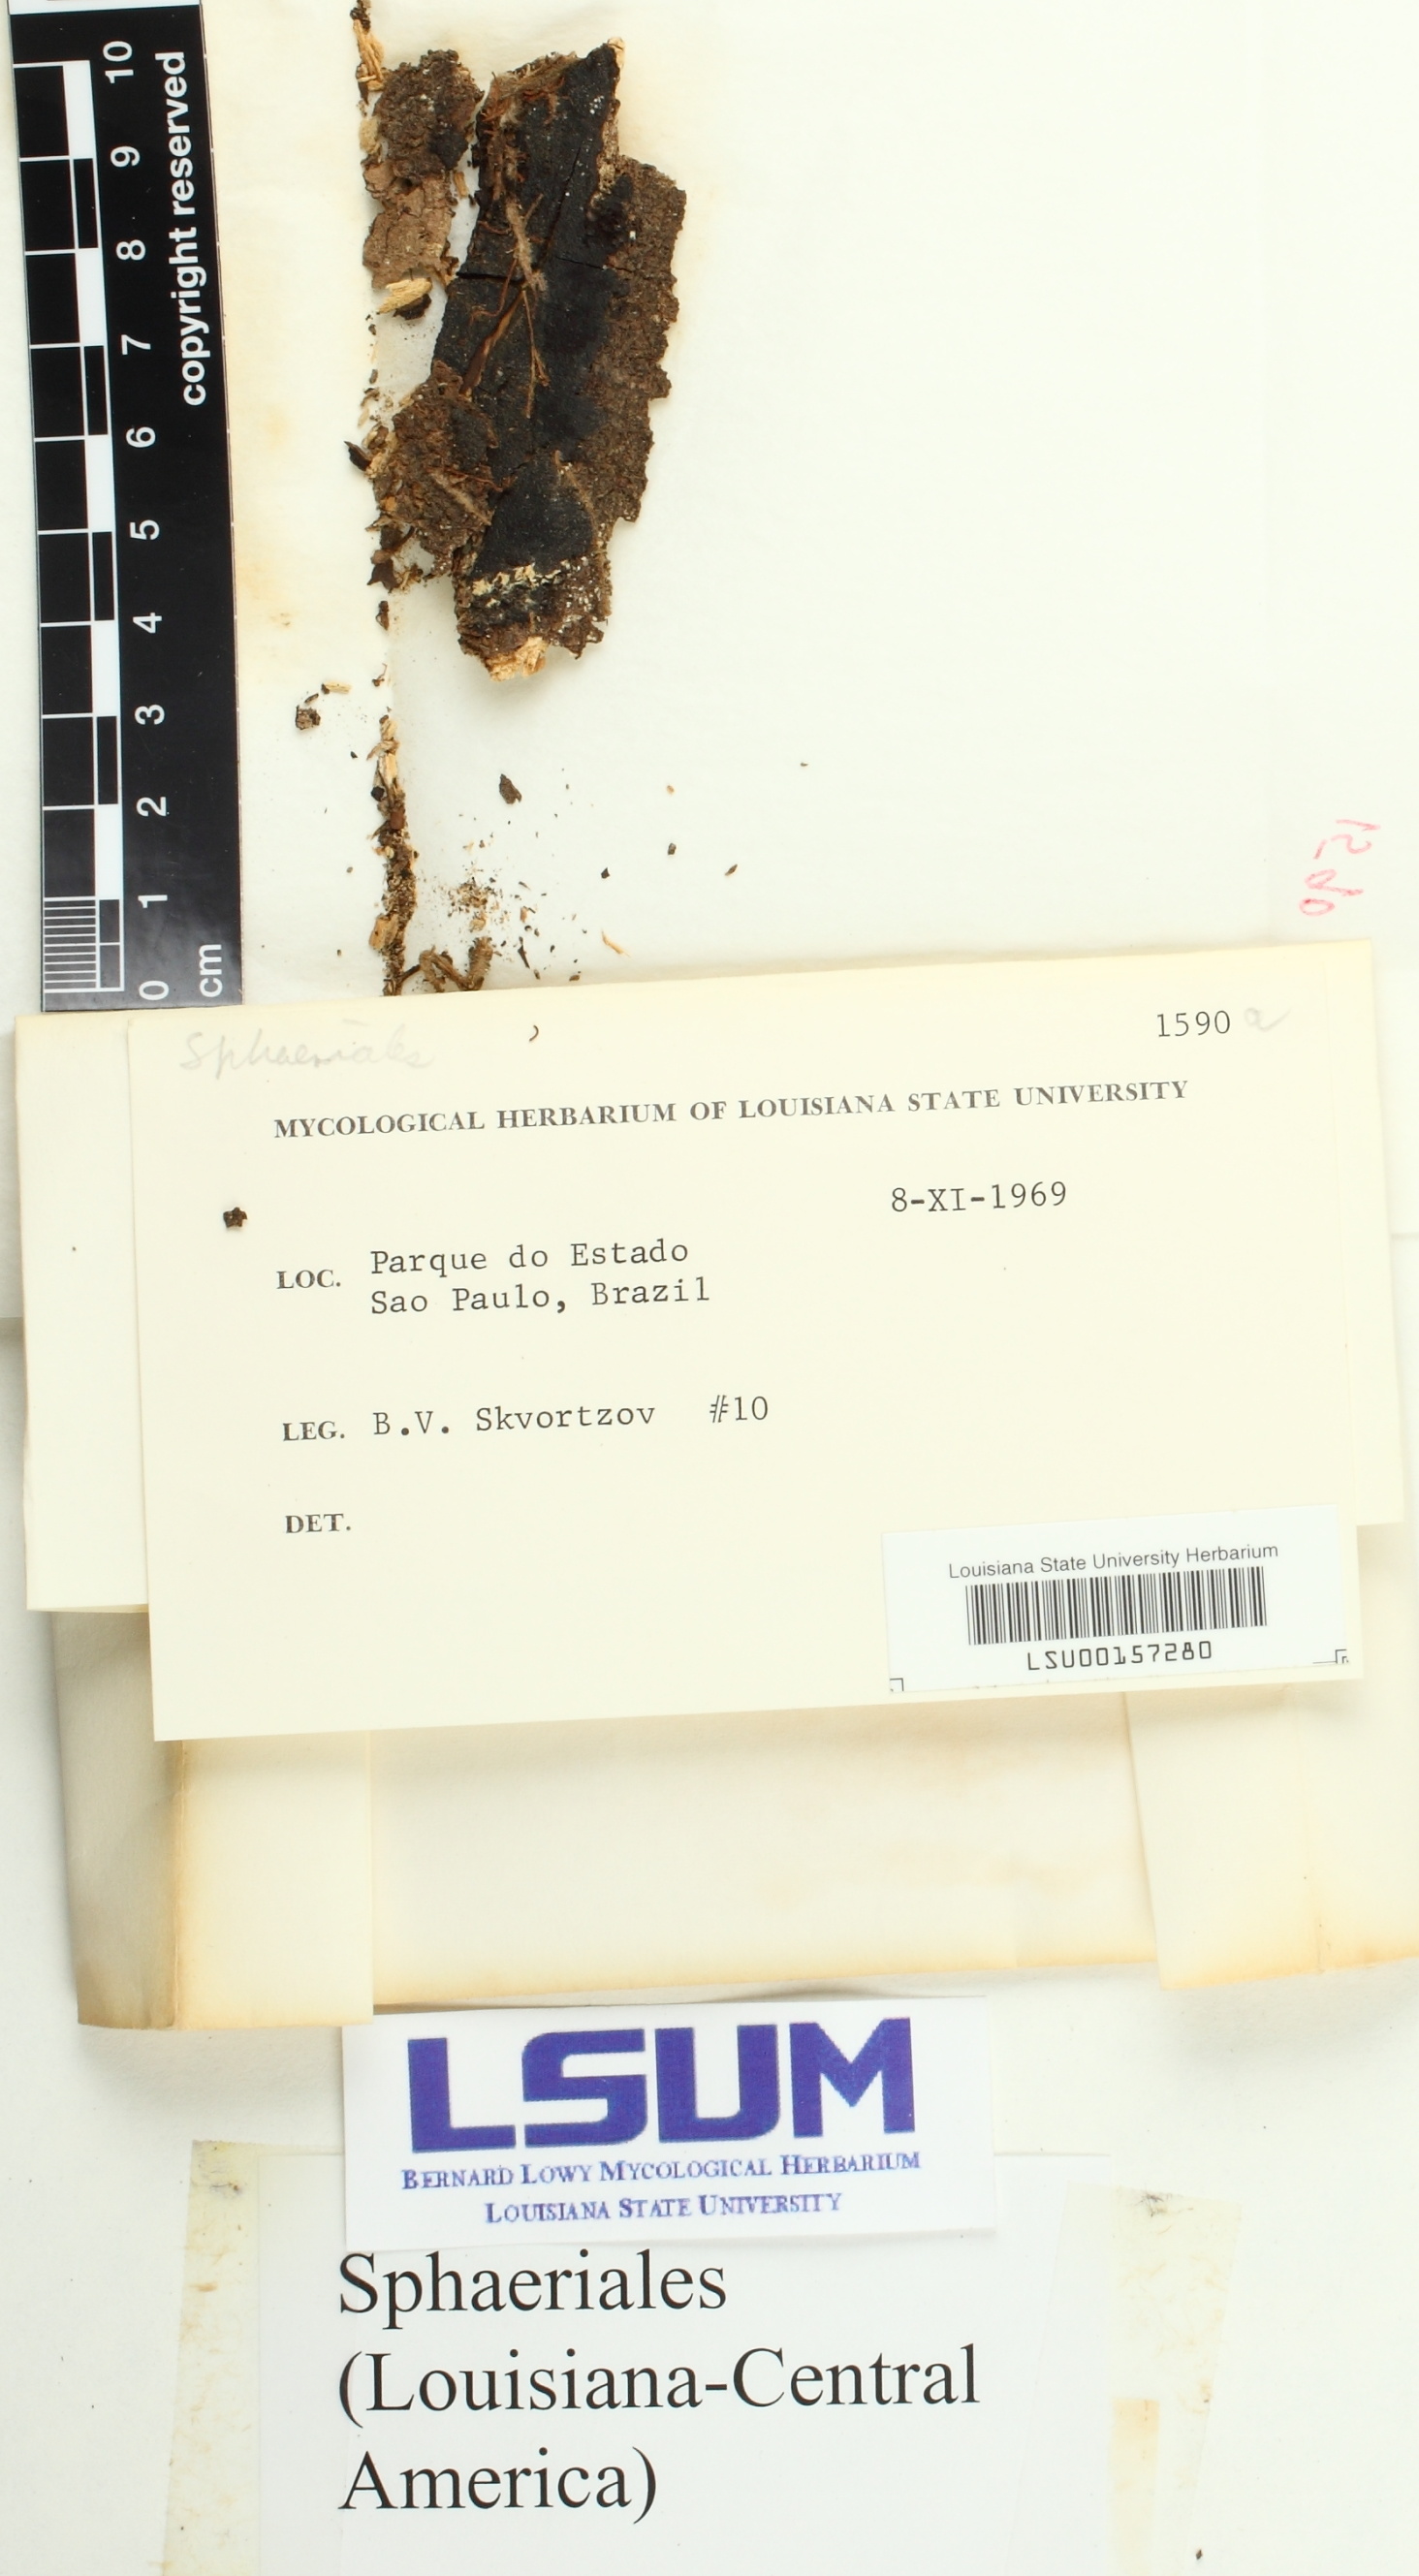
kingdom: Fungi
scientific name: Fungi
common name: Fungi
